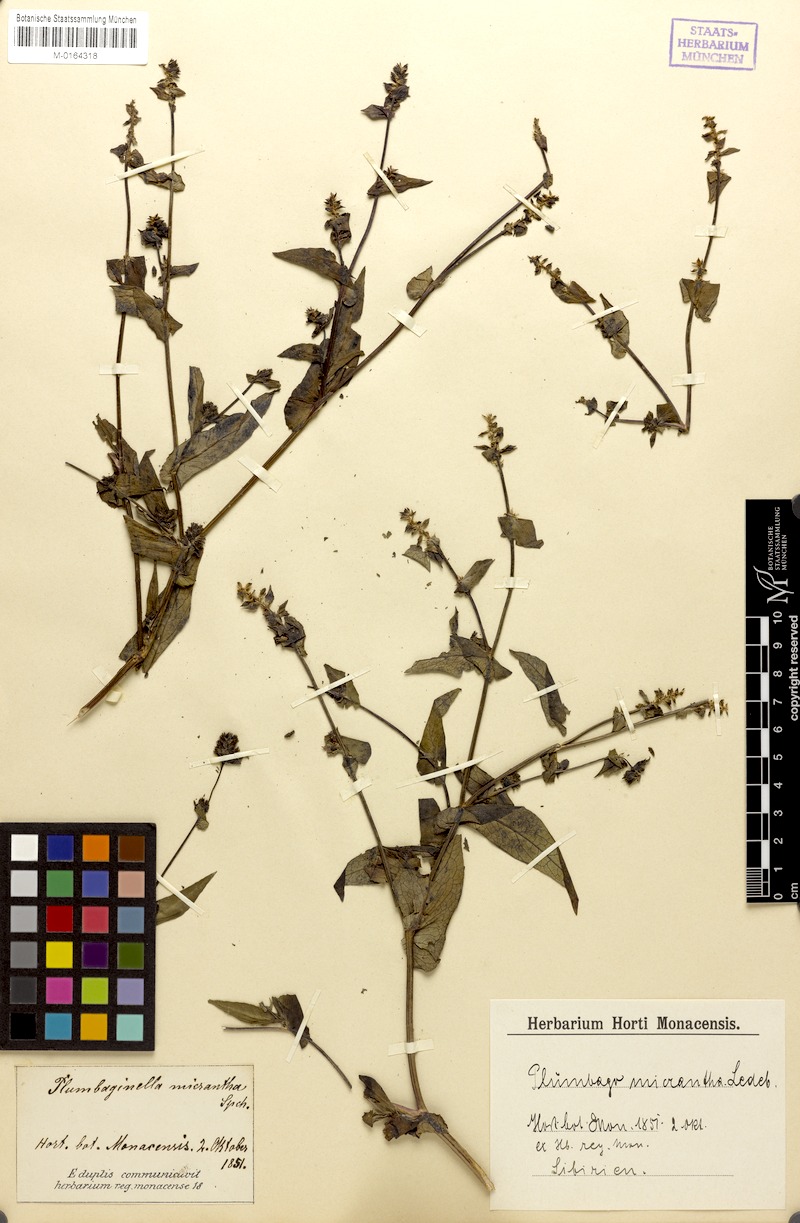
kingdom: Plantae
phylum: Tracheophyta
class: Magnoliopsida
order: Caryophyllales
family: Plumbaginaceae
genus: Plumbagella
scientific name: Plumbagella micrantha
